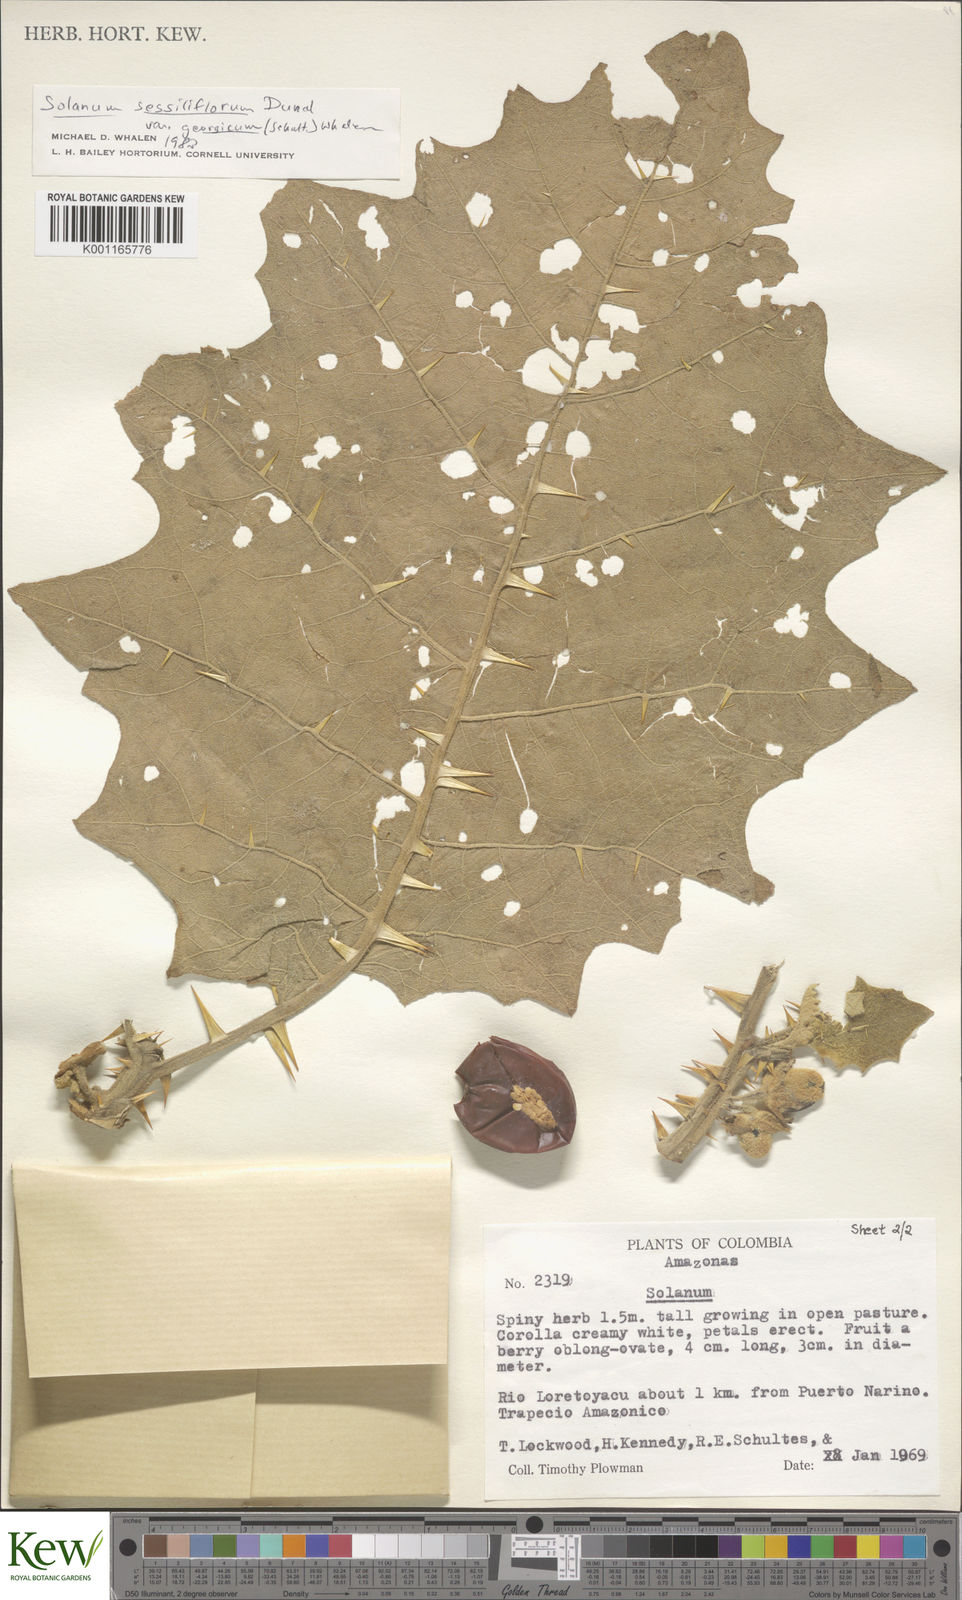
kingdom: Plantae
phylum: Tracheophyta
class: Magnoliopsida
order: Solanales
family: Solanaceae
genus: Solanum
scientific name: Solanum sessiliflorum
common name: Orinoco-apple
